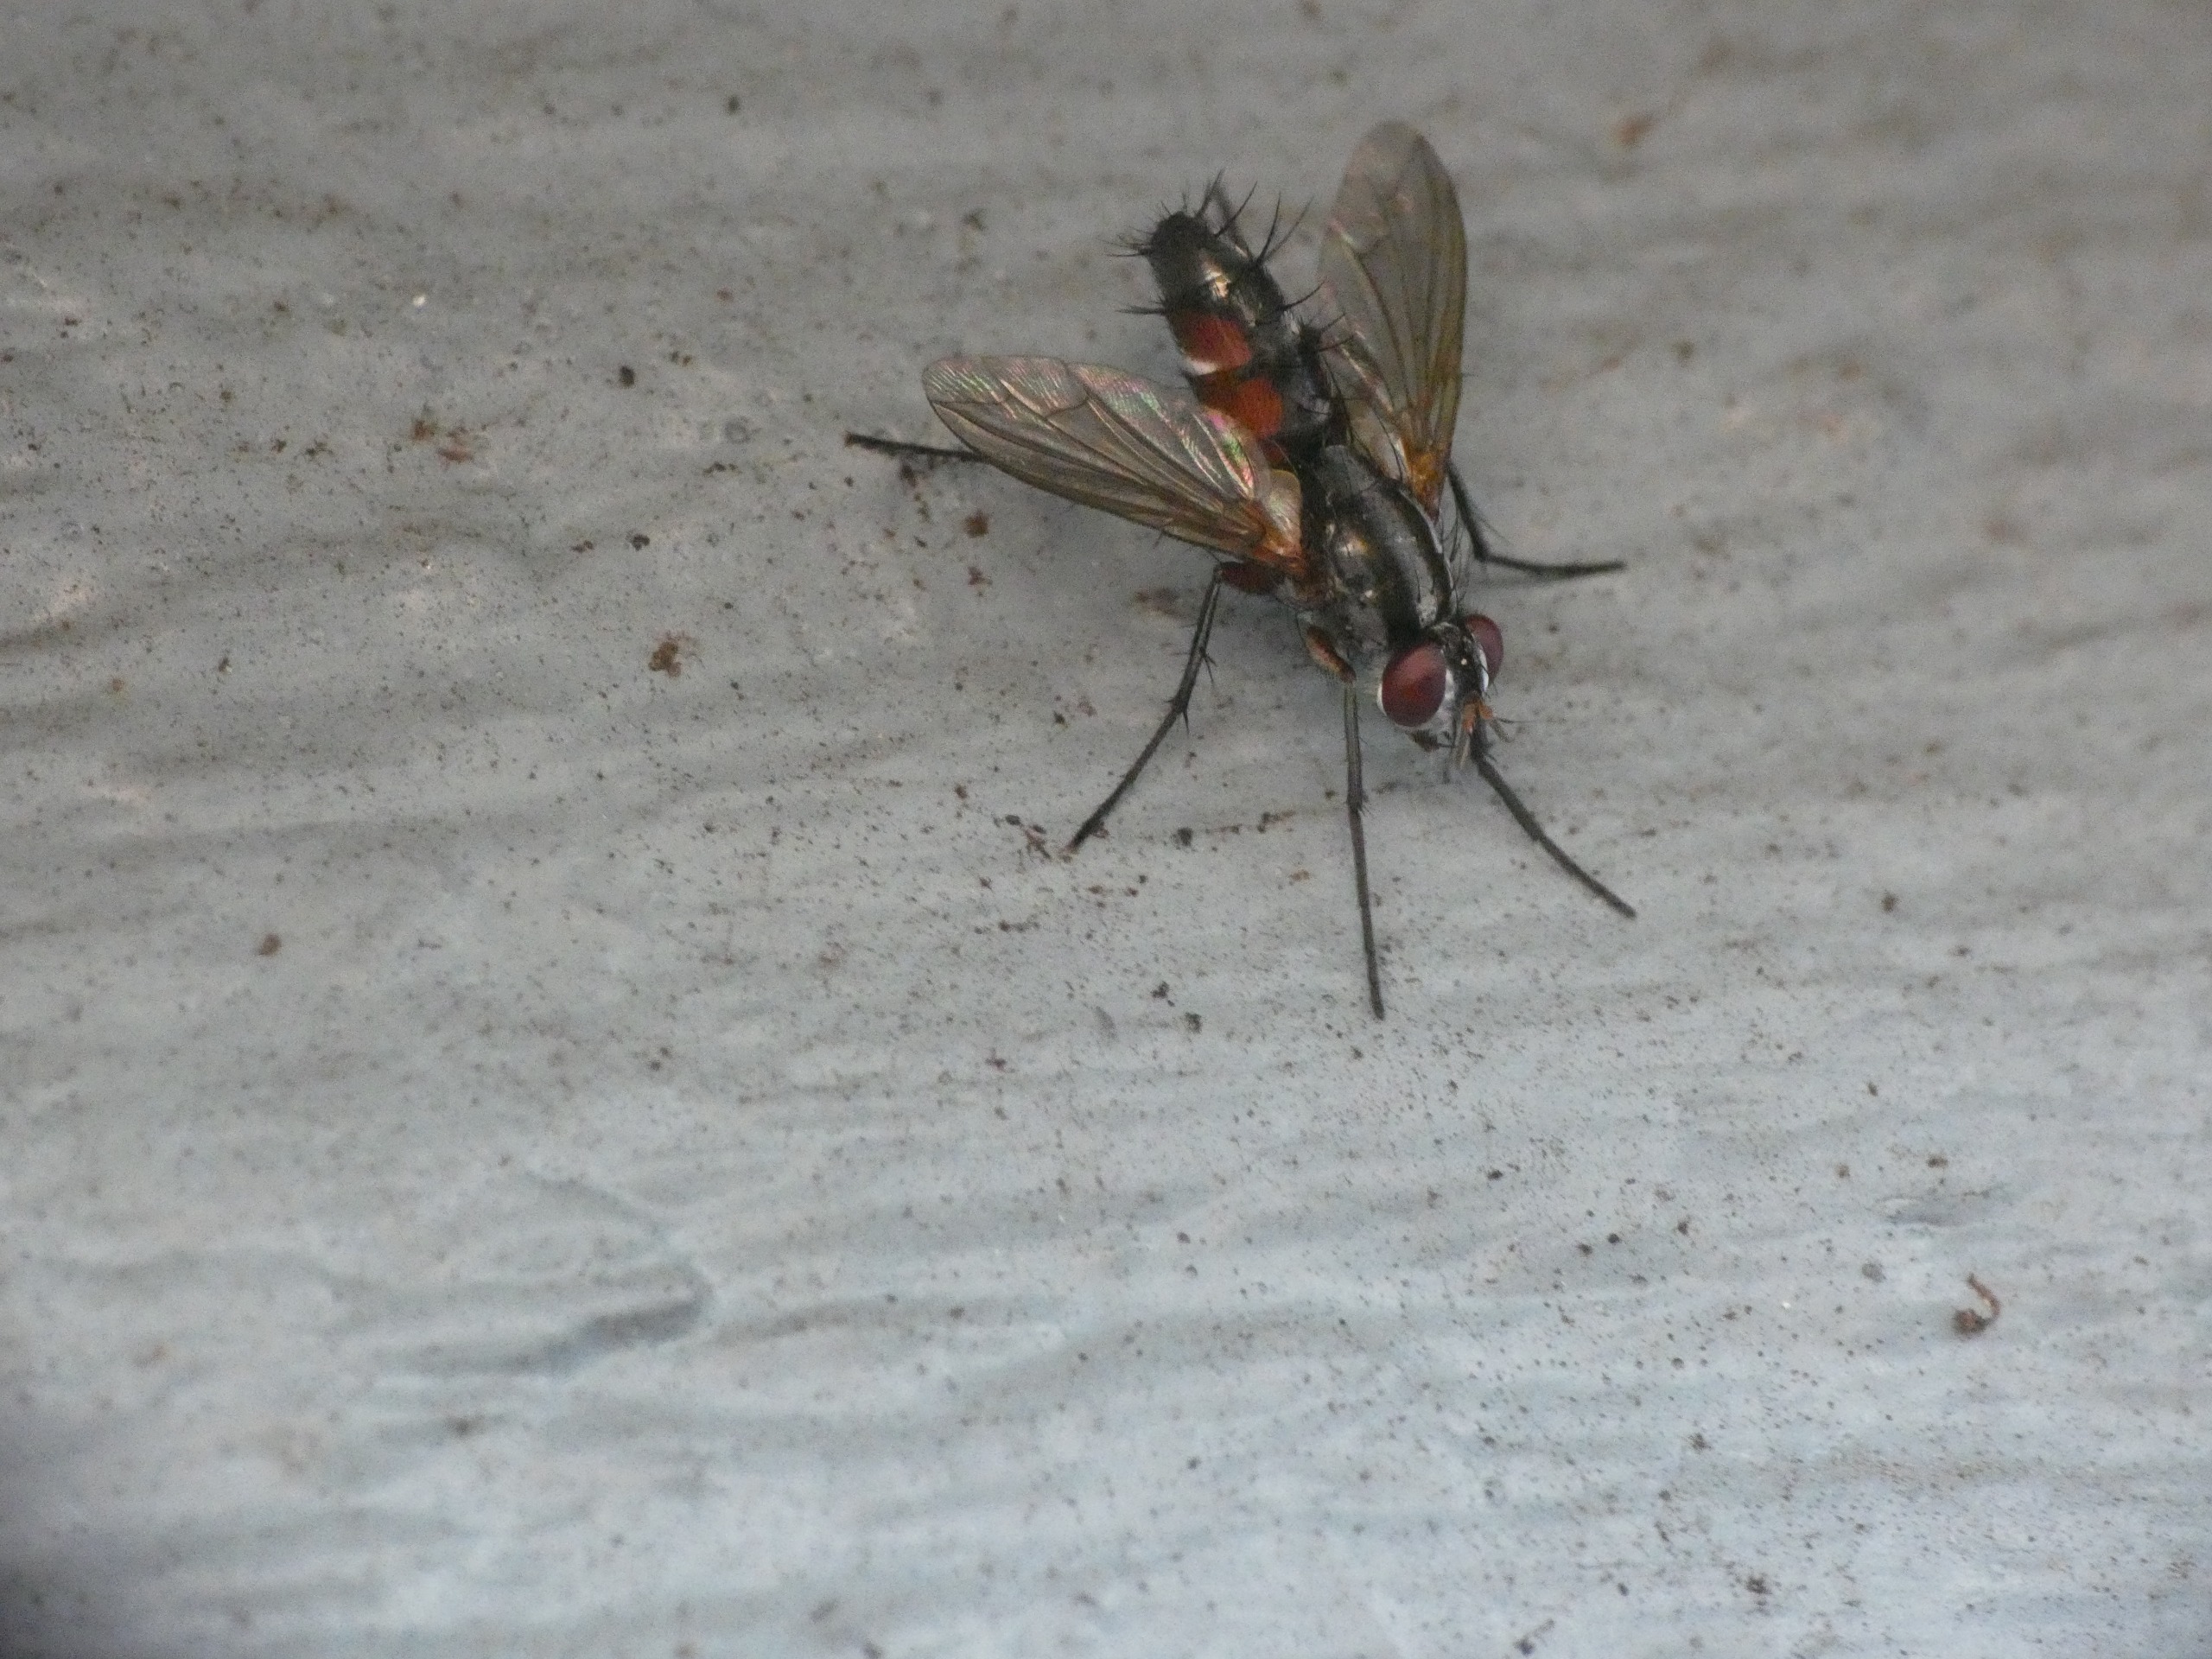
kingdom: Animalia
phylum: Arthropoda
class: Insecta
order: Diptera
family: Tachinidae
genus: Mintho
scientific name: Mintho rufiventris
